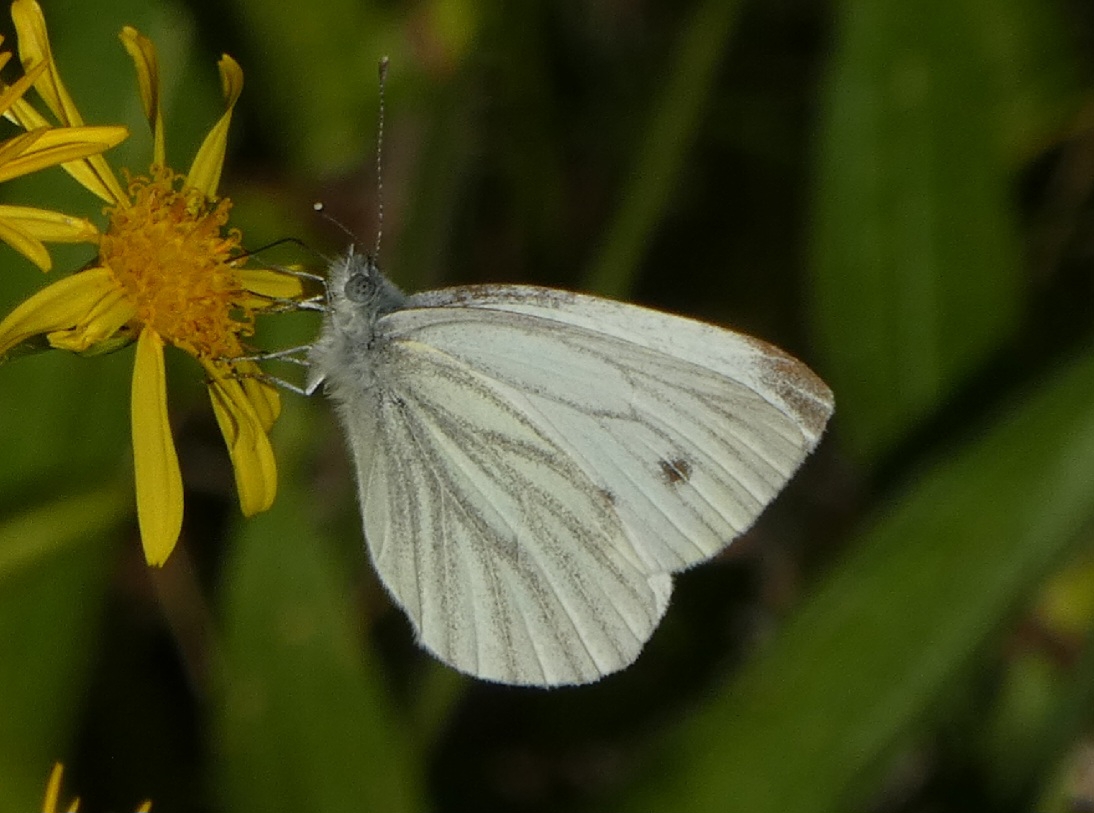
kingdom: Animalia
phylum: Arthropoda
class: Insecta
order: Lepidoptera
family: Pieridae
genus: Pieris
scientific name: Pieris napi
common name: Grønåret kålsommerfugl
